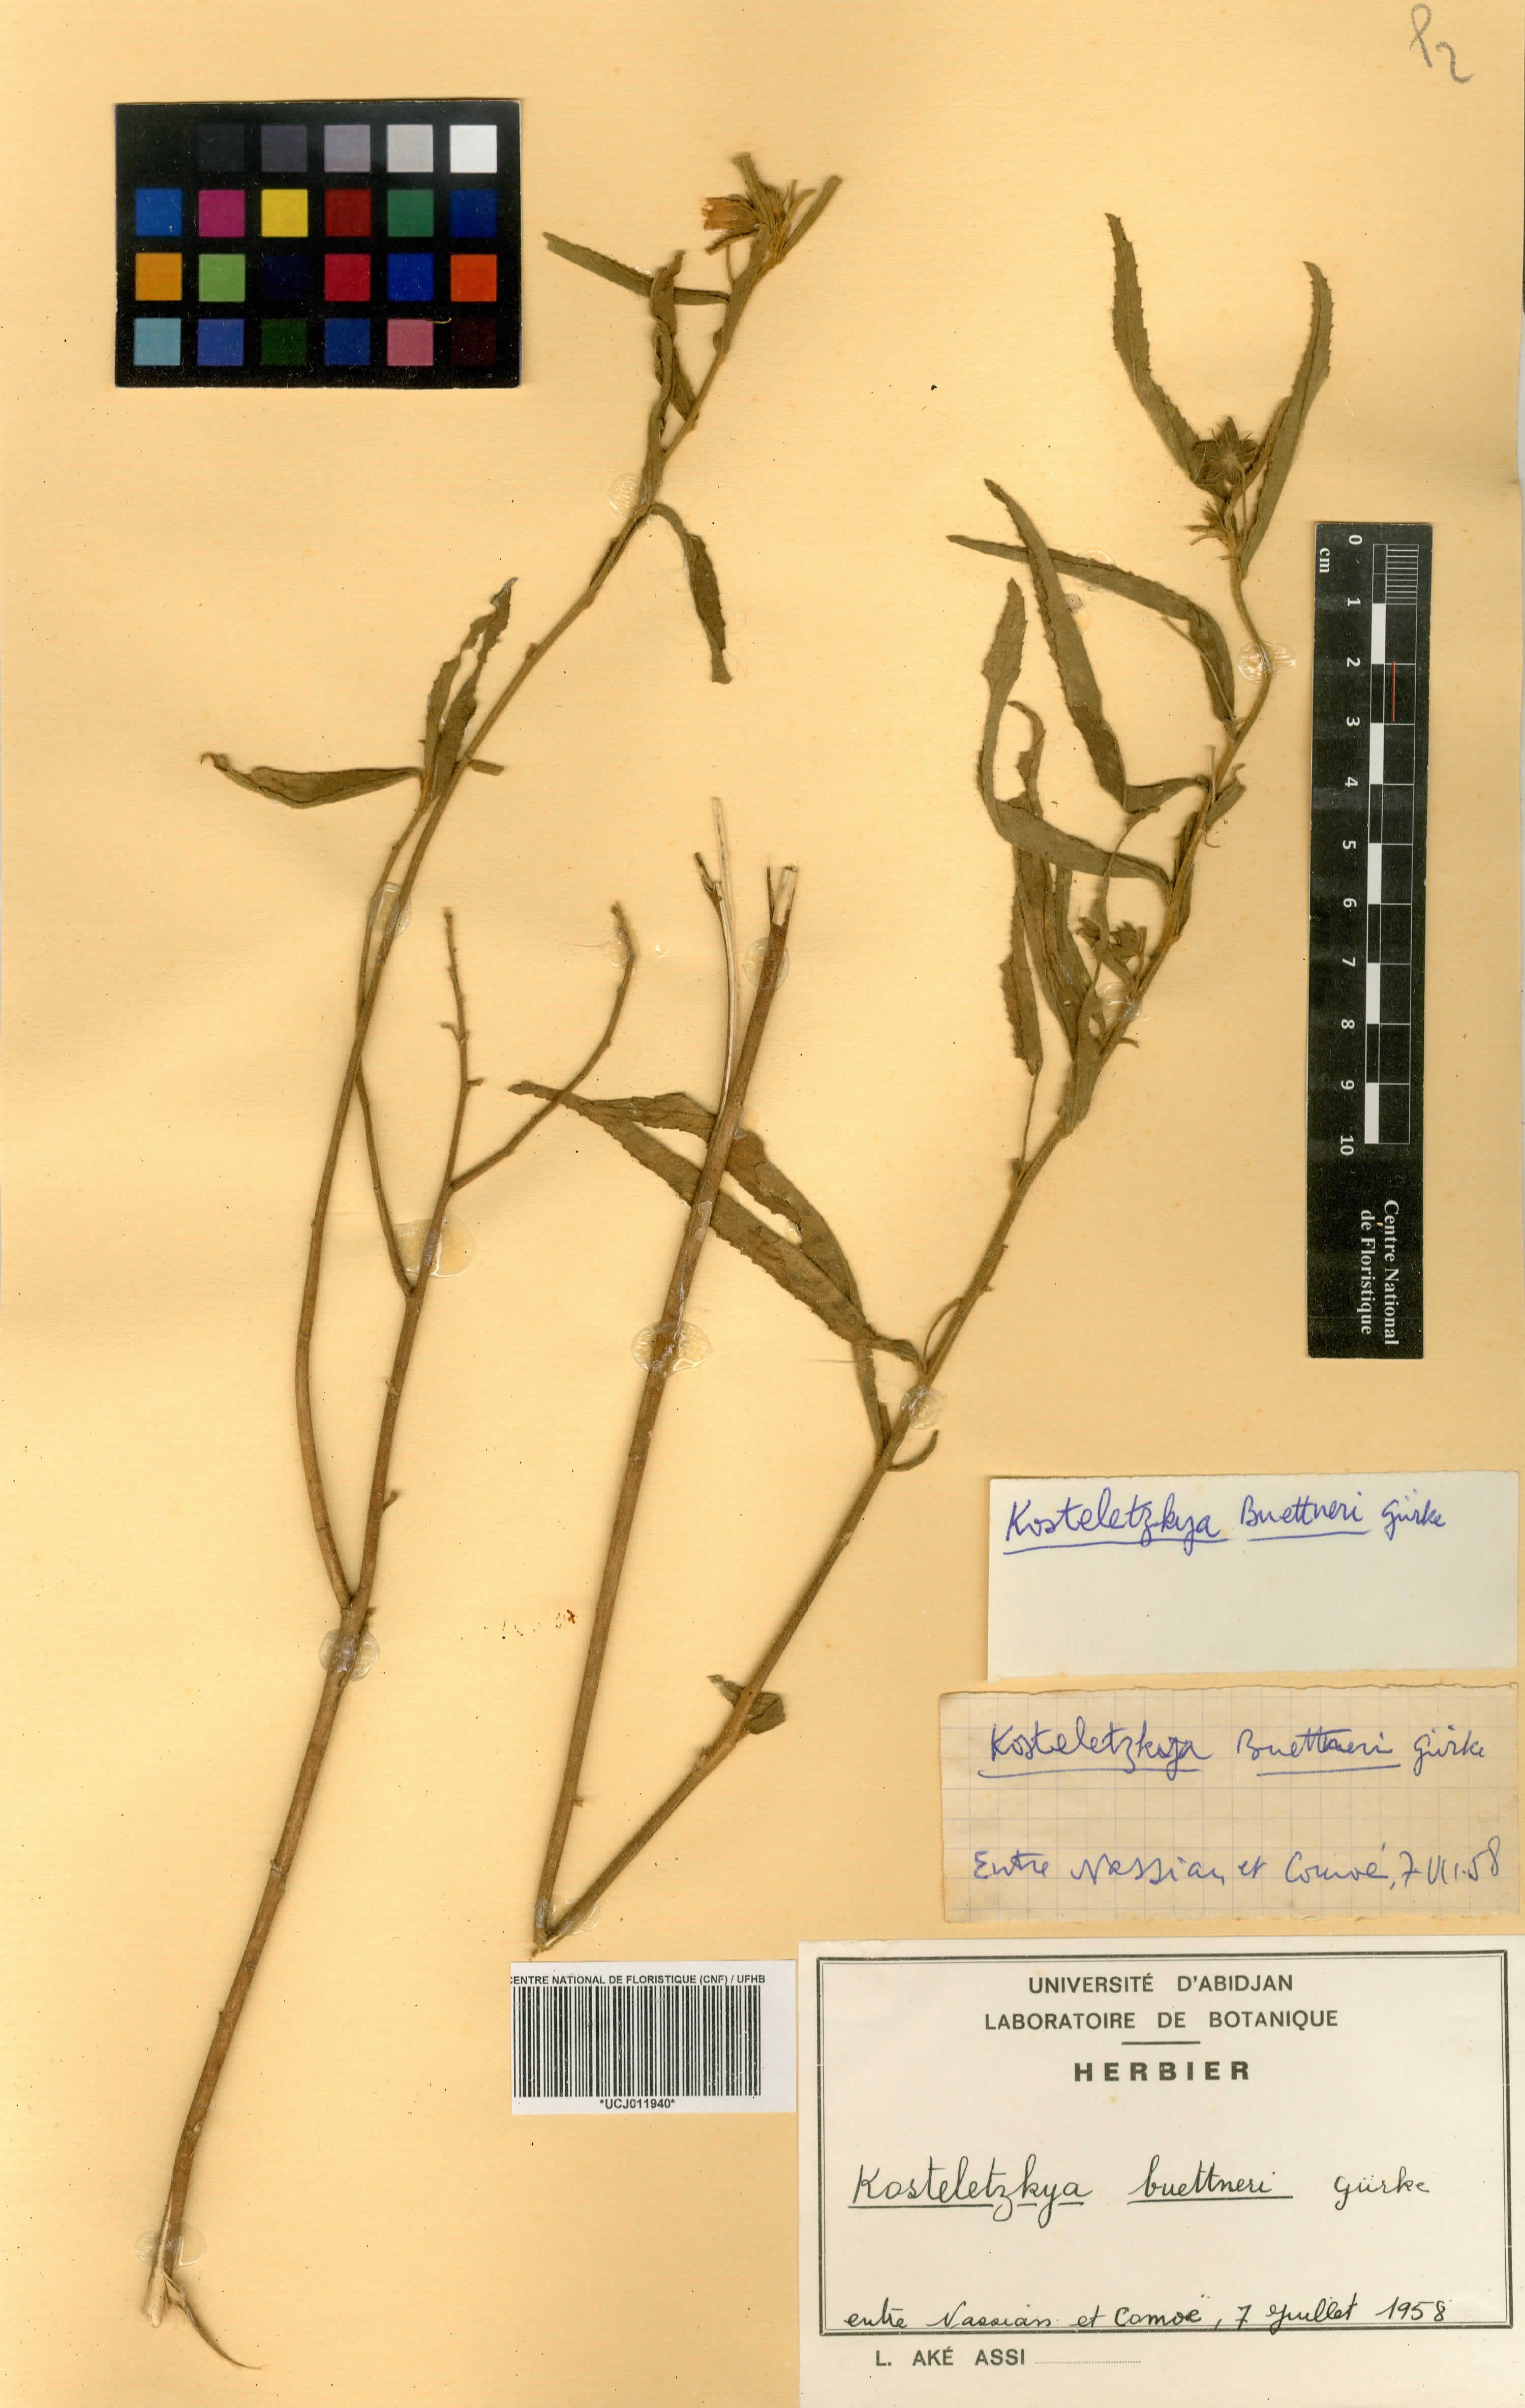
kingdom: Plantae
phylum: Tracheophyta
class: Magnoliopsida
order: Malvales
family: Malvaceae
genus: Kosteletzkya
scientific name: Kosteletzkya buettneri
